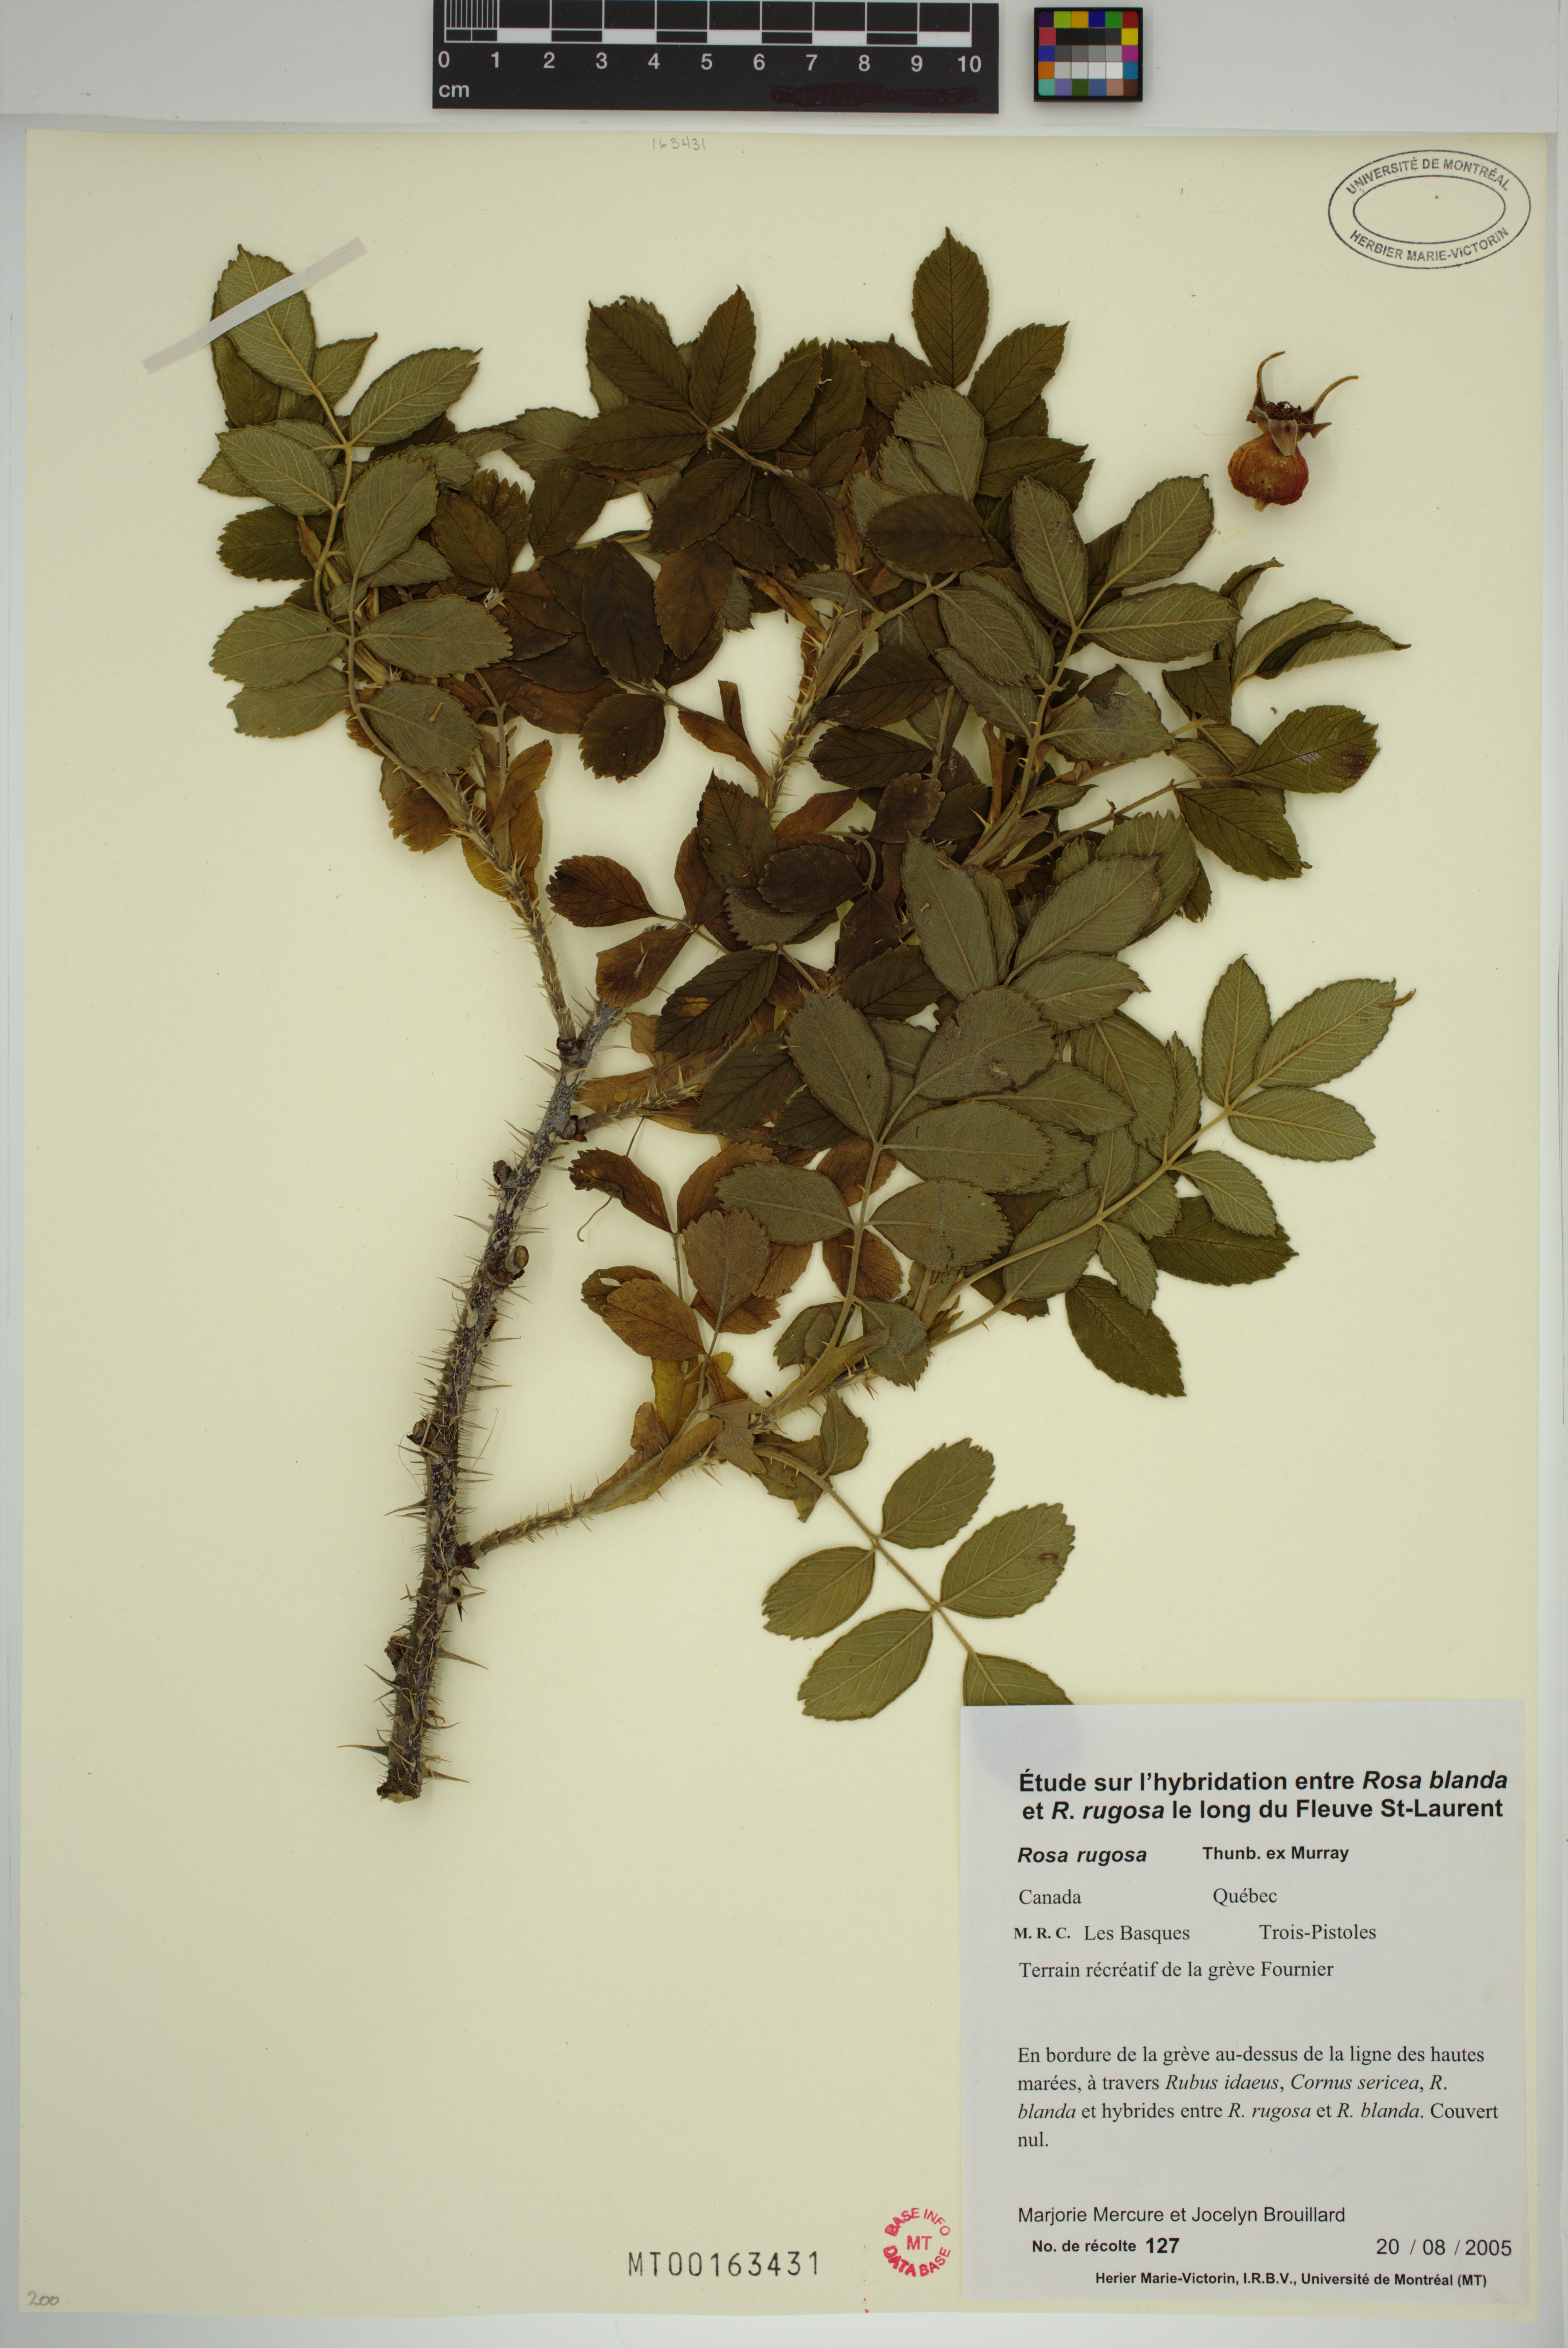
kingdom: Plantae
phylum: Tracheophyta
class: Magnoliopsida
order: Rosales
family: Rosaceae
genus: Rosa
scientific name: Rosa rugosa
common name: Japanese rose
